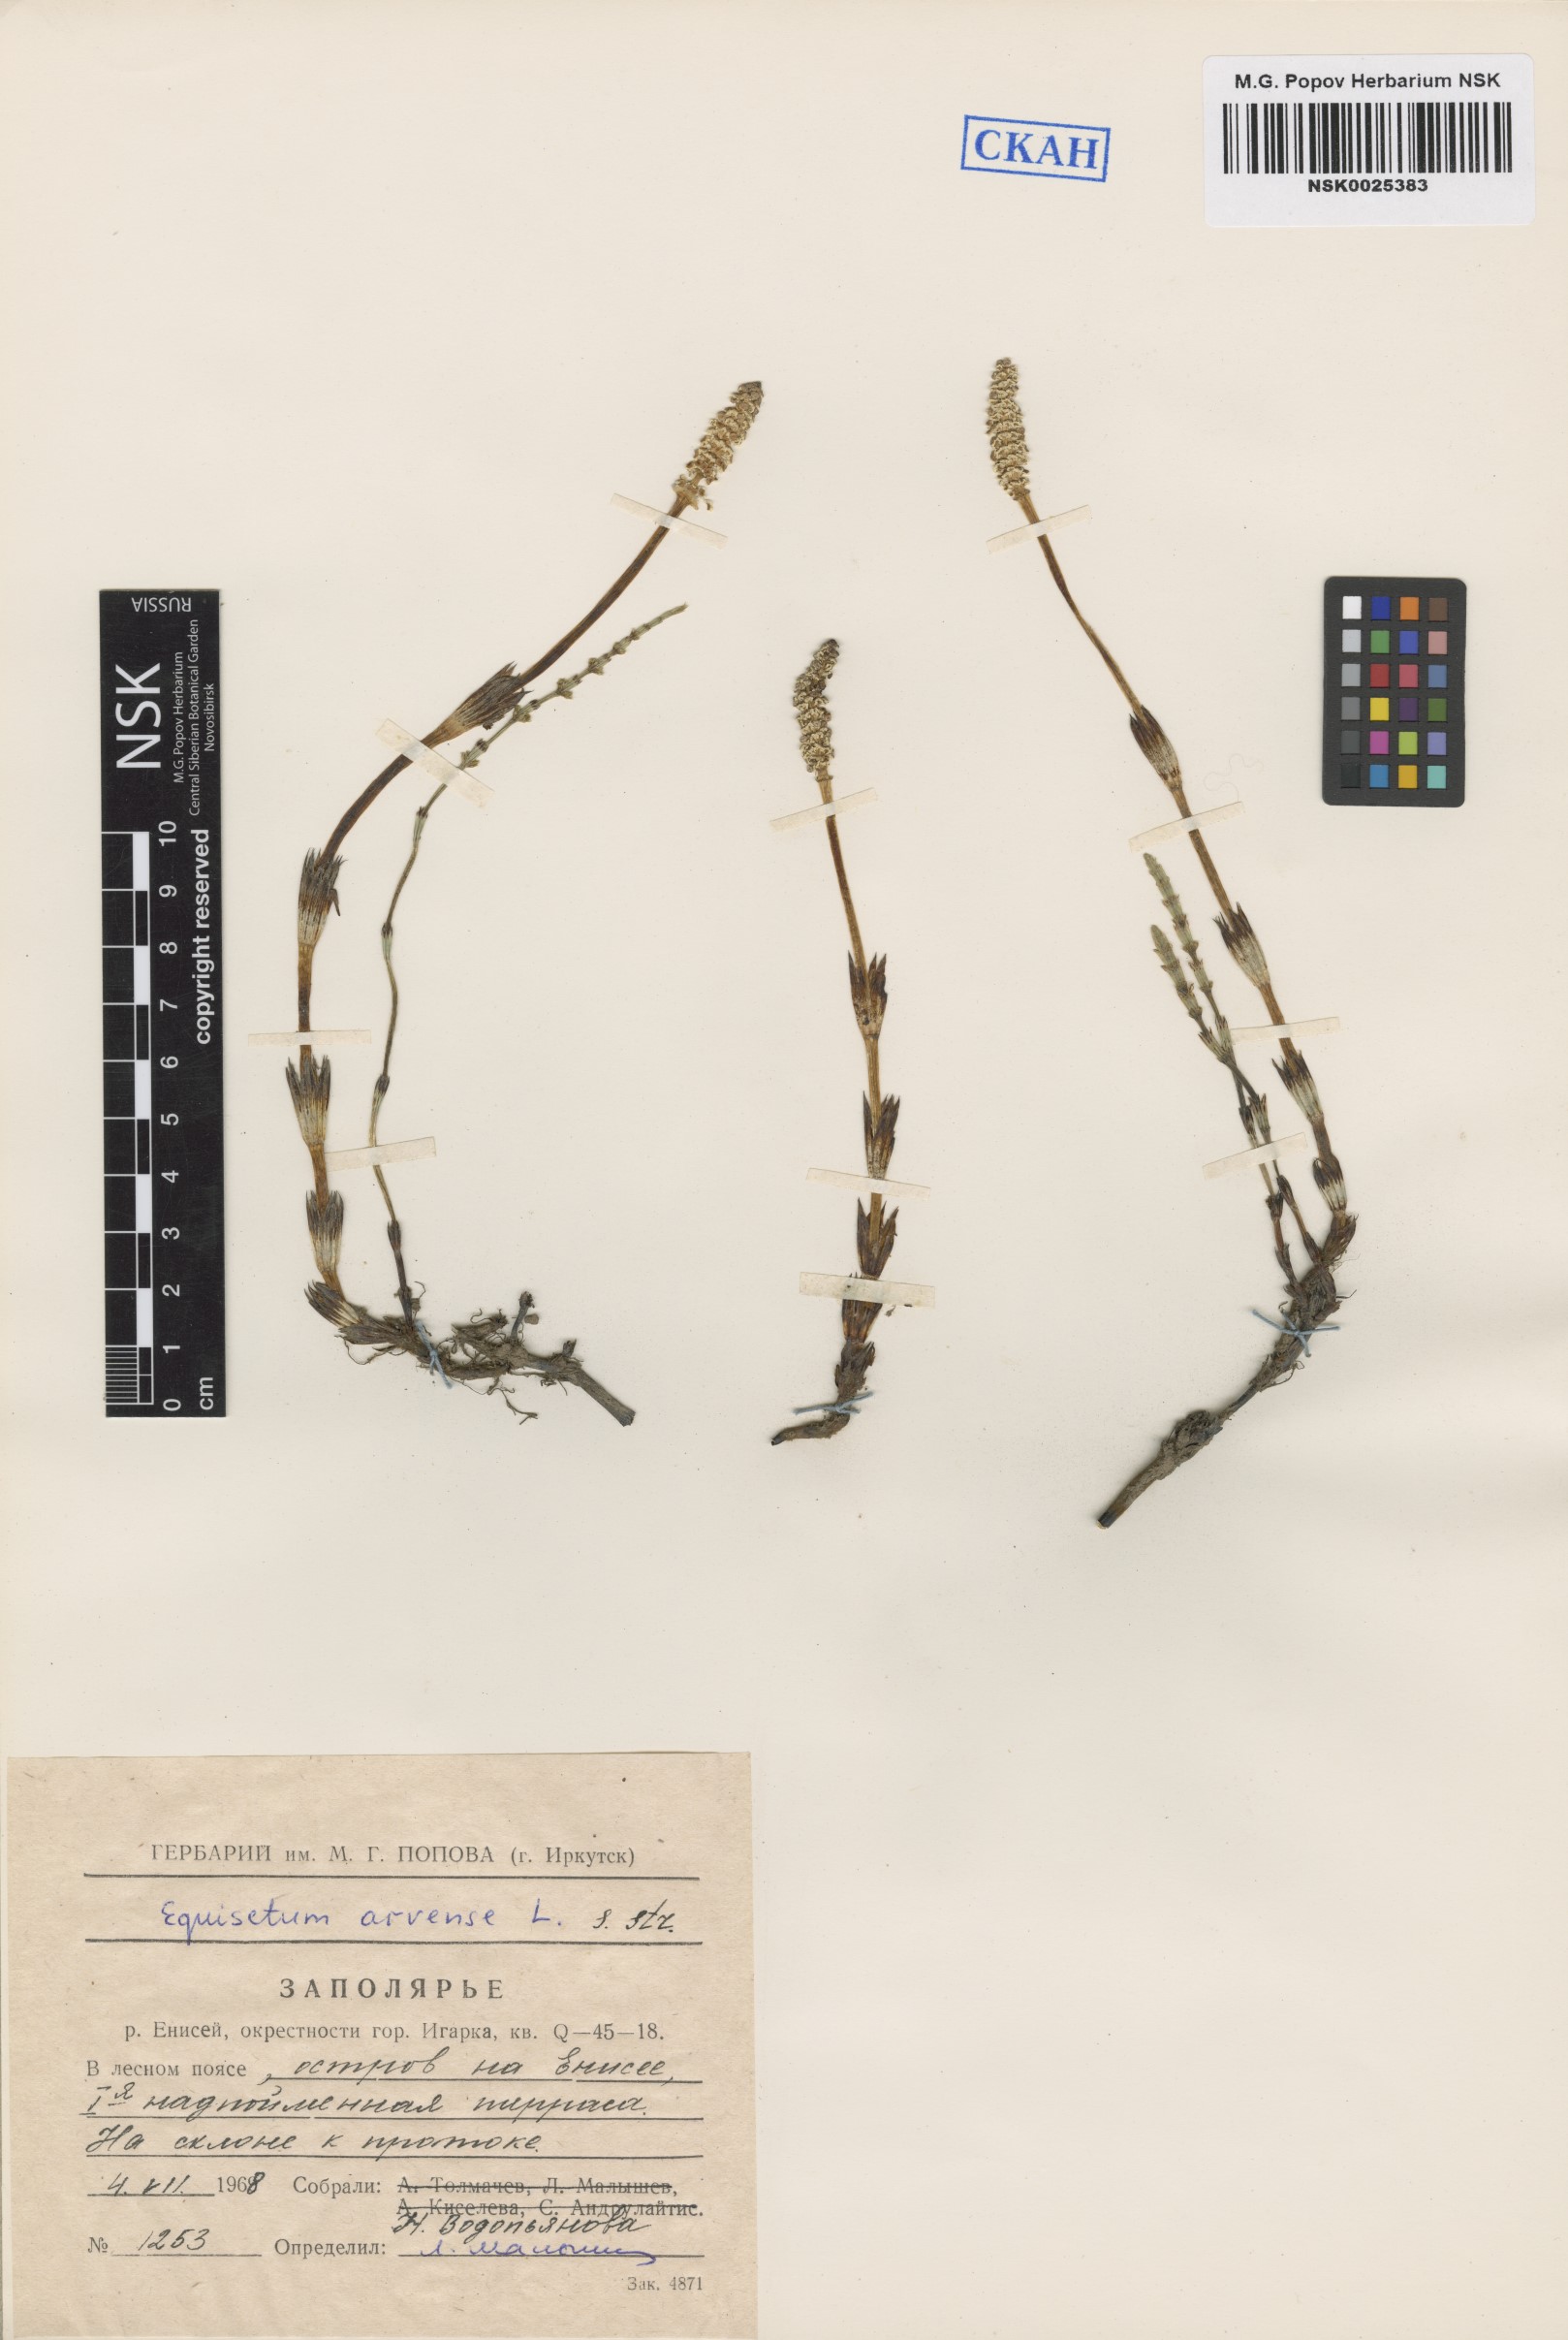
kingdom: Plantae
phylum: Tracheophyta
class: Polypodiopsida
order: Equisetales
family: Equisetaceae
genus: Equisetum
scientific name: Equisetum arvense
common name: Field horsetail
